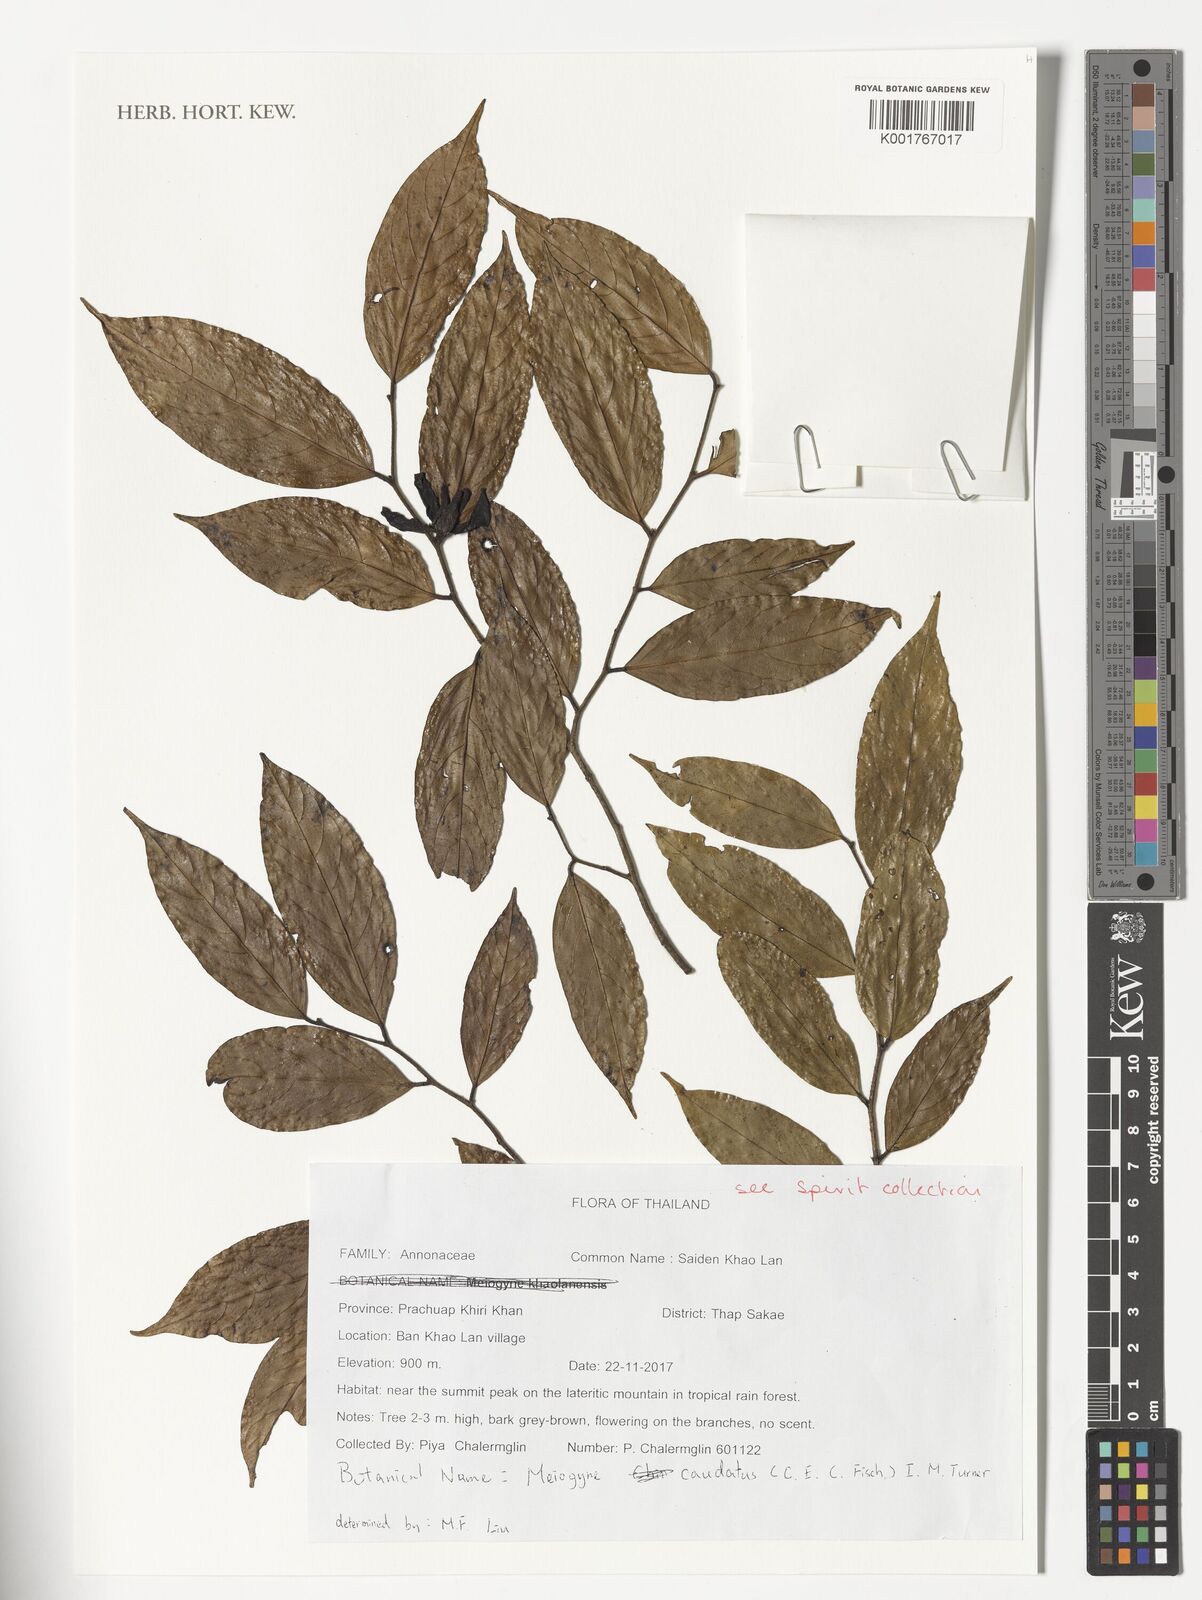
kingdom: Plantae
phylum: Tracheophyta
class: Magnoliopsida
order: Magnoliales
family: Annonaceae
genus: Desmos
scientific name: Desmos caudatus
